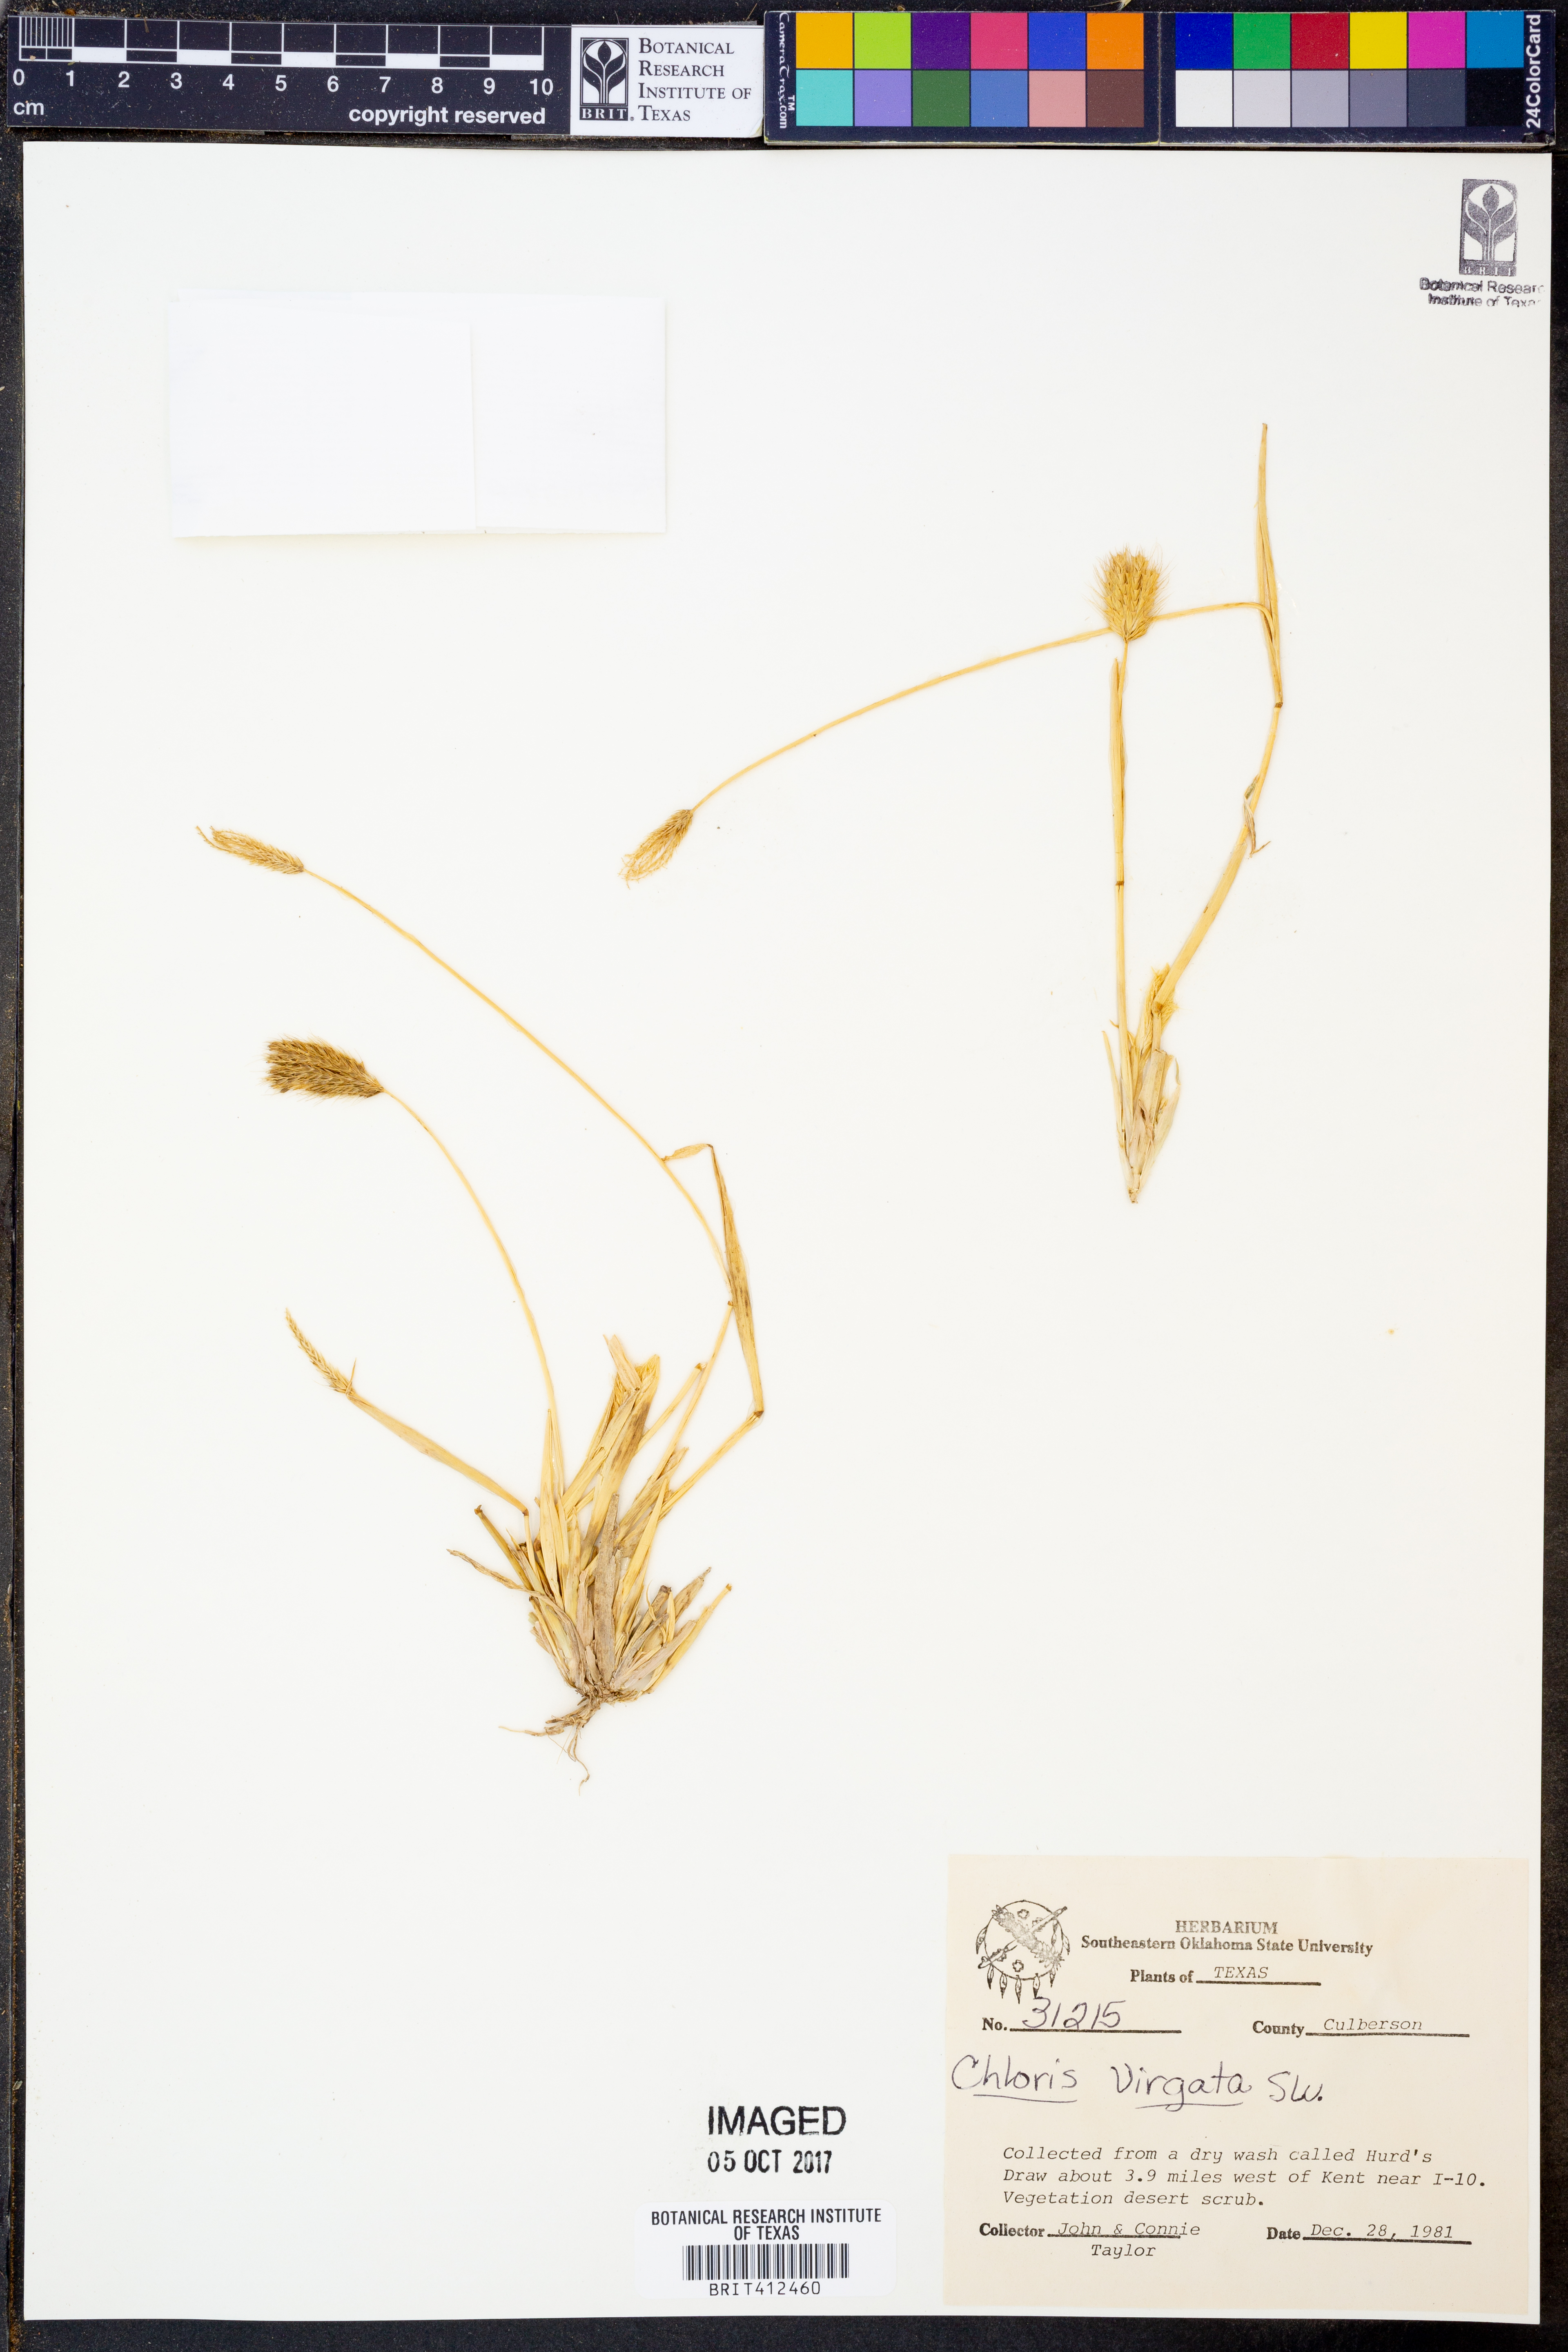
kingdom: Plantae
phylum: Tracheophyta
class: Liliopsida
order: Poales
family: Poaceae
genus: Chloris
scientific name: Chloris virgata
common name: Feathery rhodes-grass
